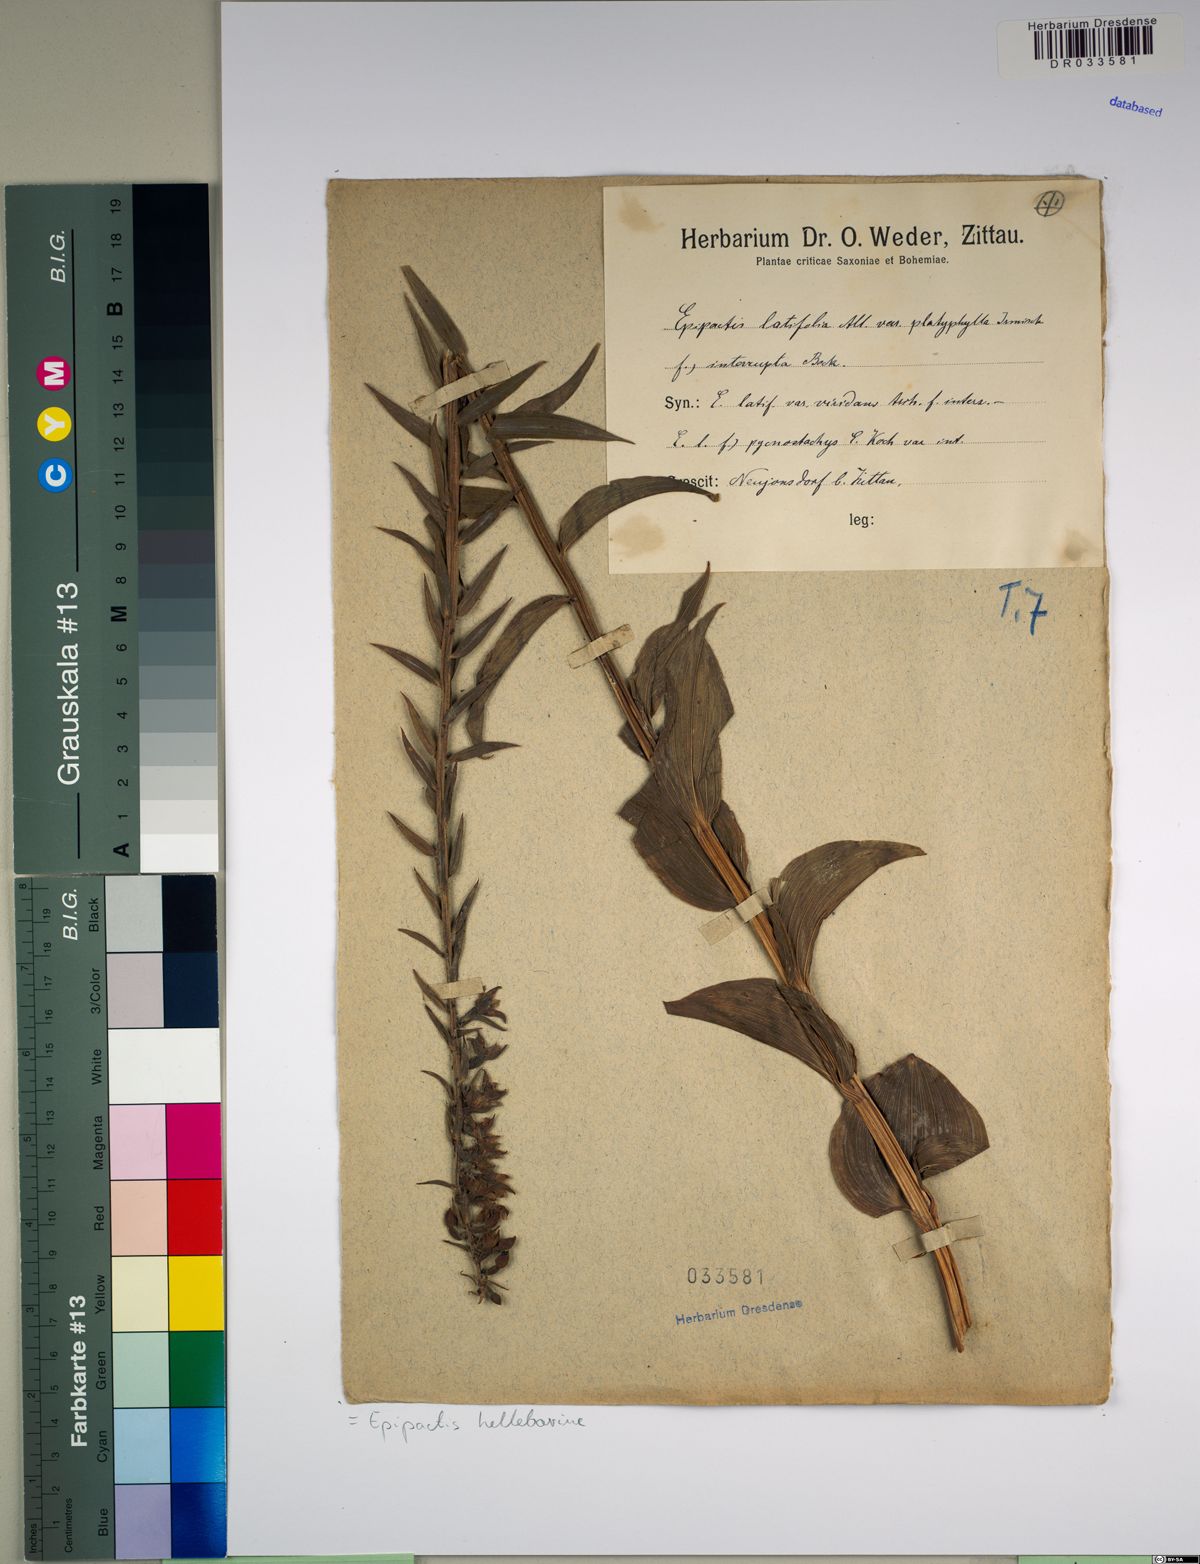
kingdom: Plantae
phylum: Tracheophyta
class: Liliopsida
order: Asparagales
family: Orchidaceae
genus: Epipactis
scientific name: Epipactis helleborine
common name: Broad-leaved helleborine
